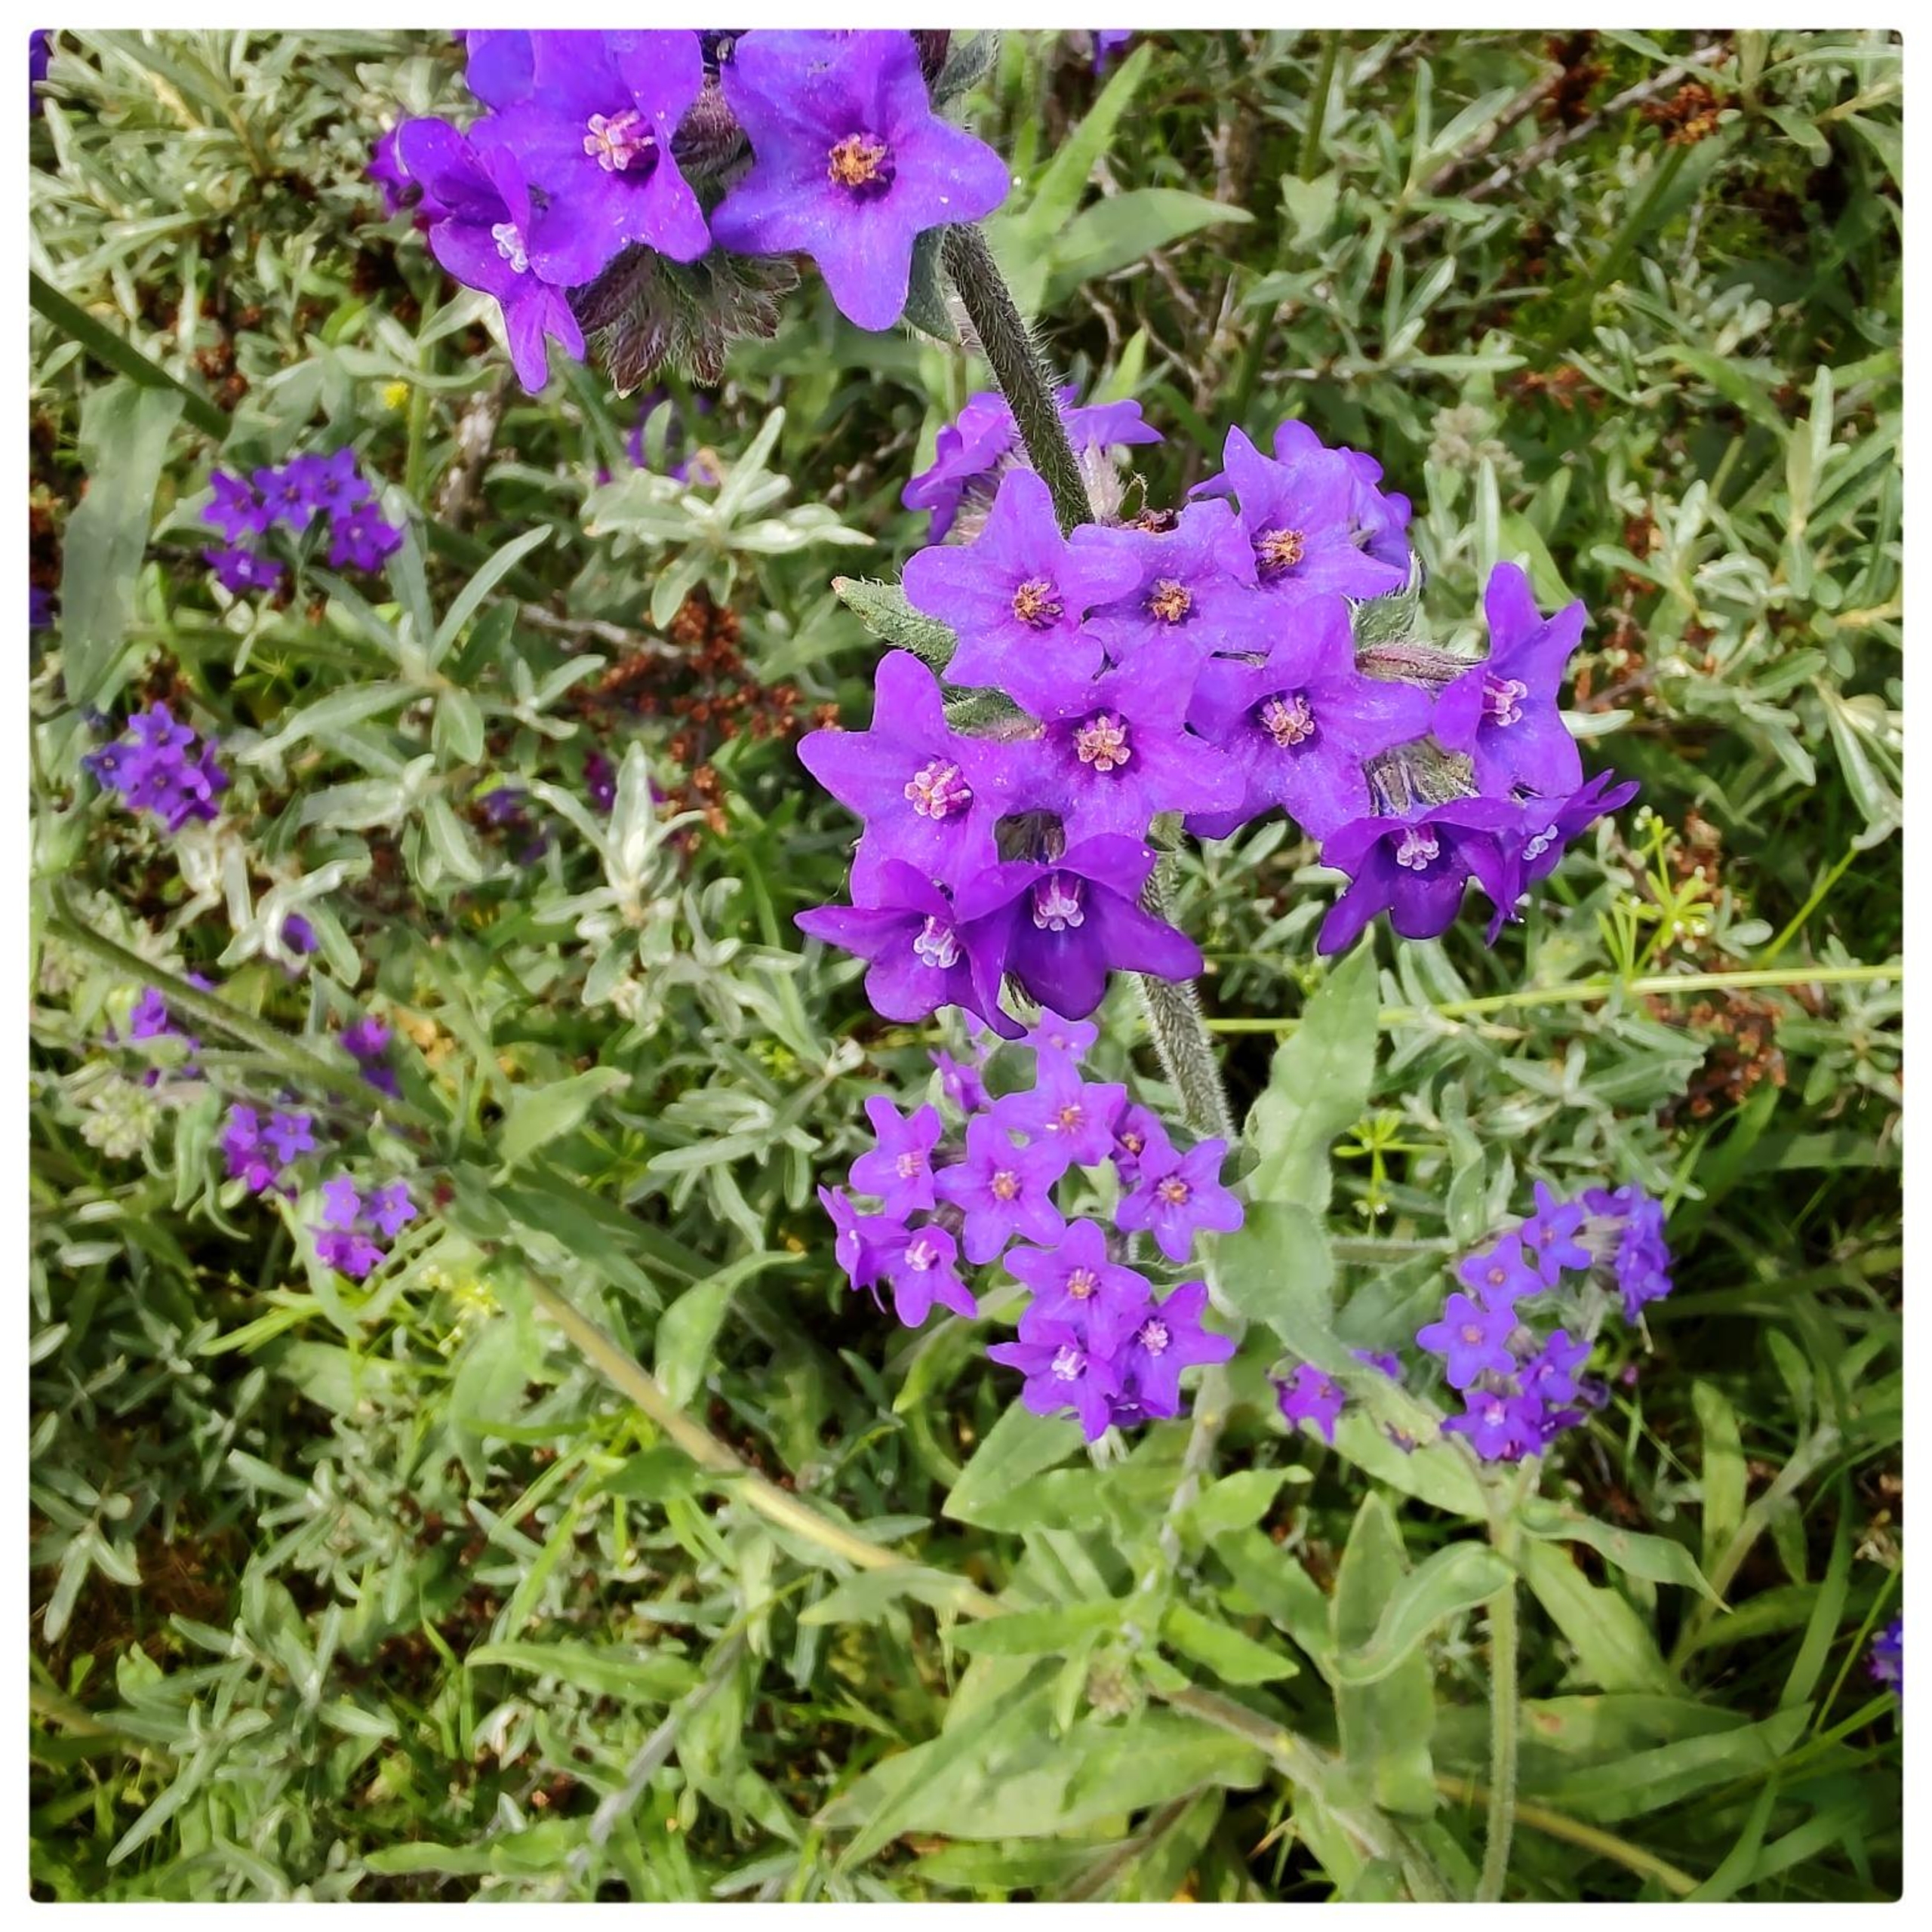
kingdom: Plantae
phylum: Tracheophyta
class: Magnoliopsida
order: Boraginales
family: Boraginaceae
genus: Anchusa
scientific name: Anchusa officinalis
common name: Læge-oksetunge
